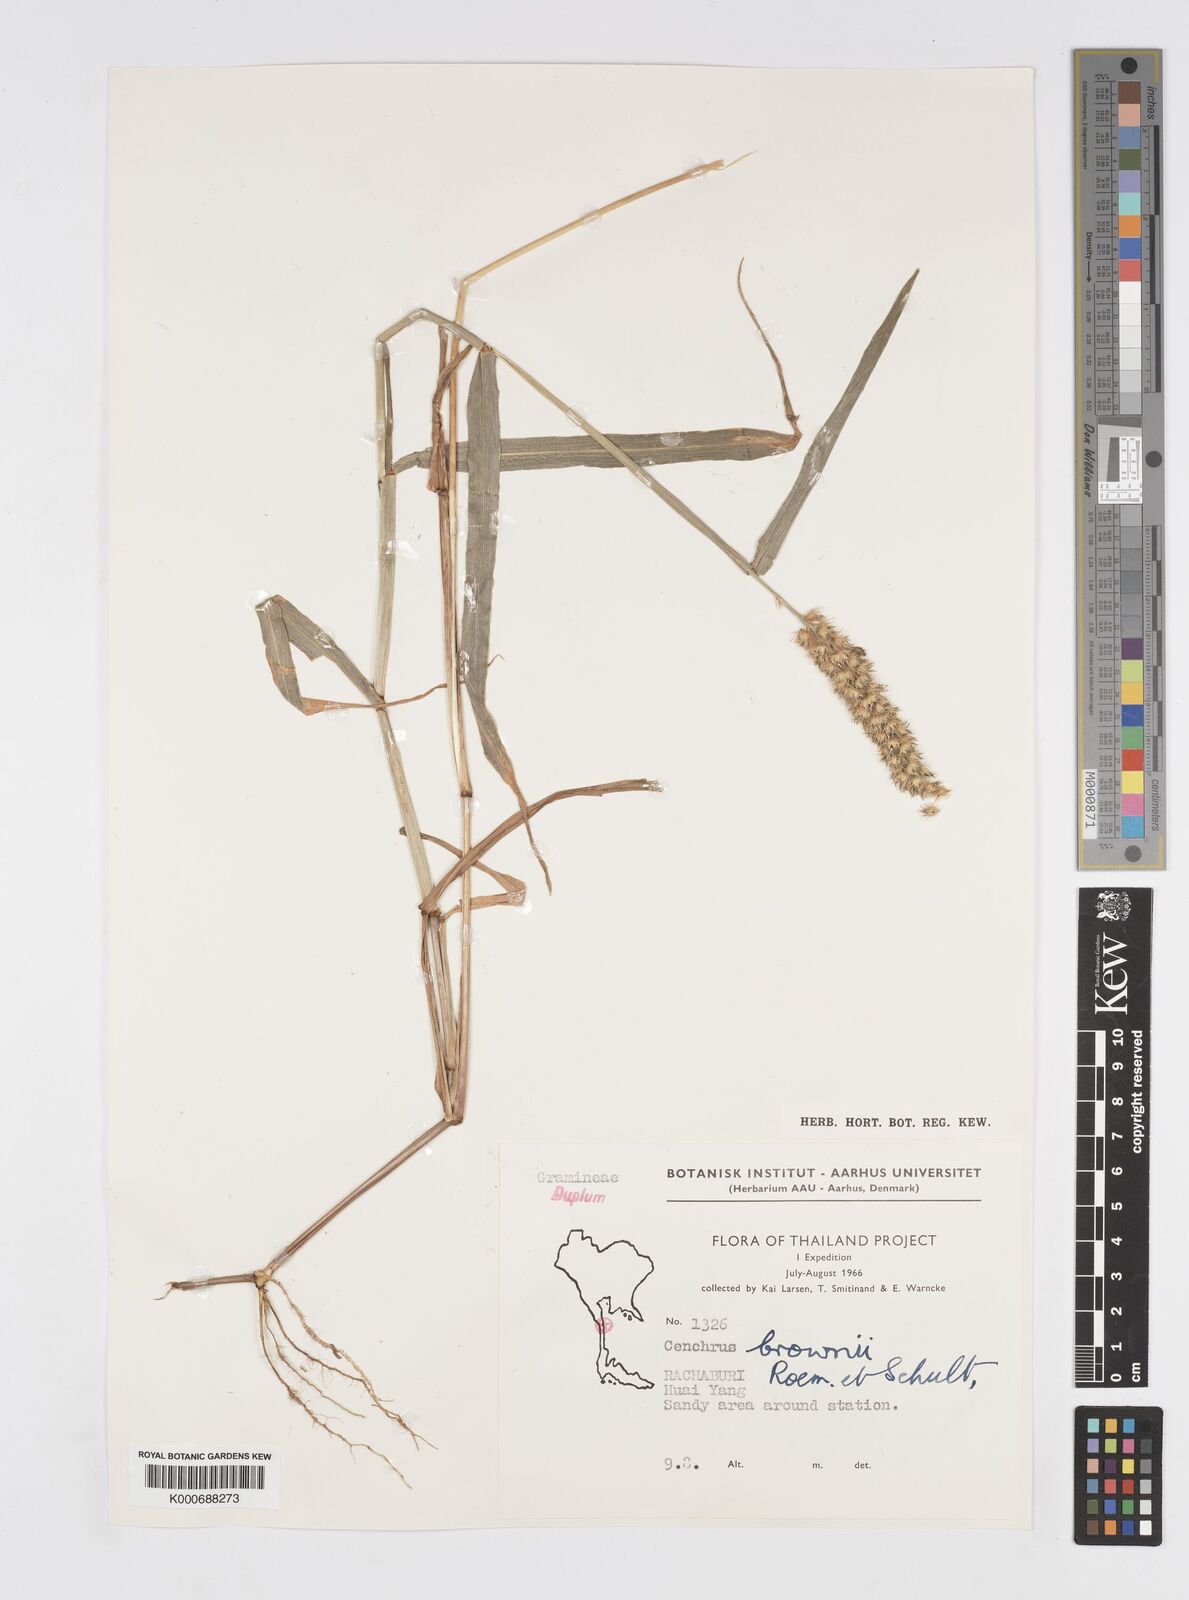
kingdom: Plantae
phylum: Tracheophyta
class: Liliopsida
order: Poales
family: Poaceae
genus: Cenchrus
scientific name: Cenchrus brownii
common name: Slim-bristle sandbur
